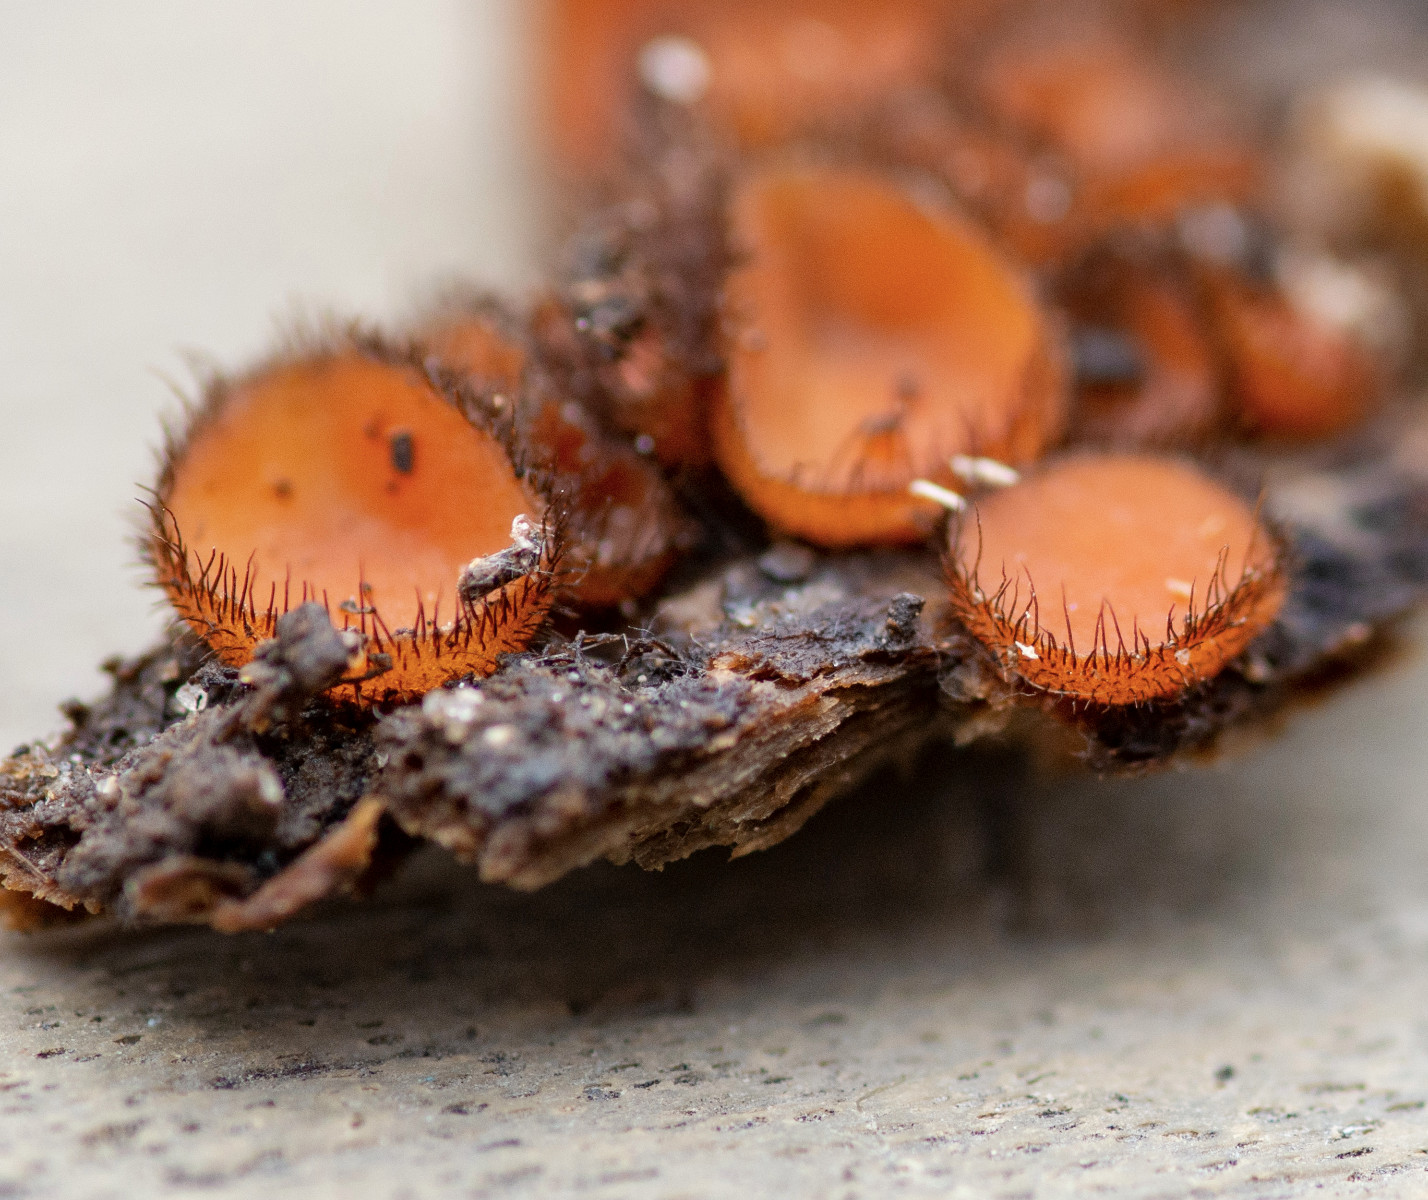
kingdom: Fungi
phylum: Ascomycota
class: Pezizomycetes
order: Pezizales
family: Pyronemataceae
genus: Scutellinia
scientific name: Scutellinia scutellata
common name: frynset skjoldbæger
